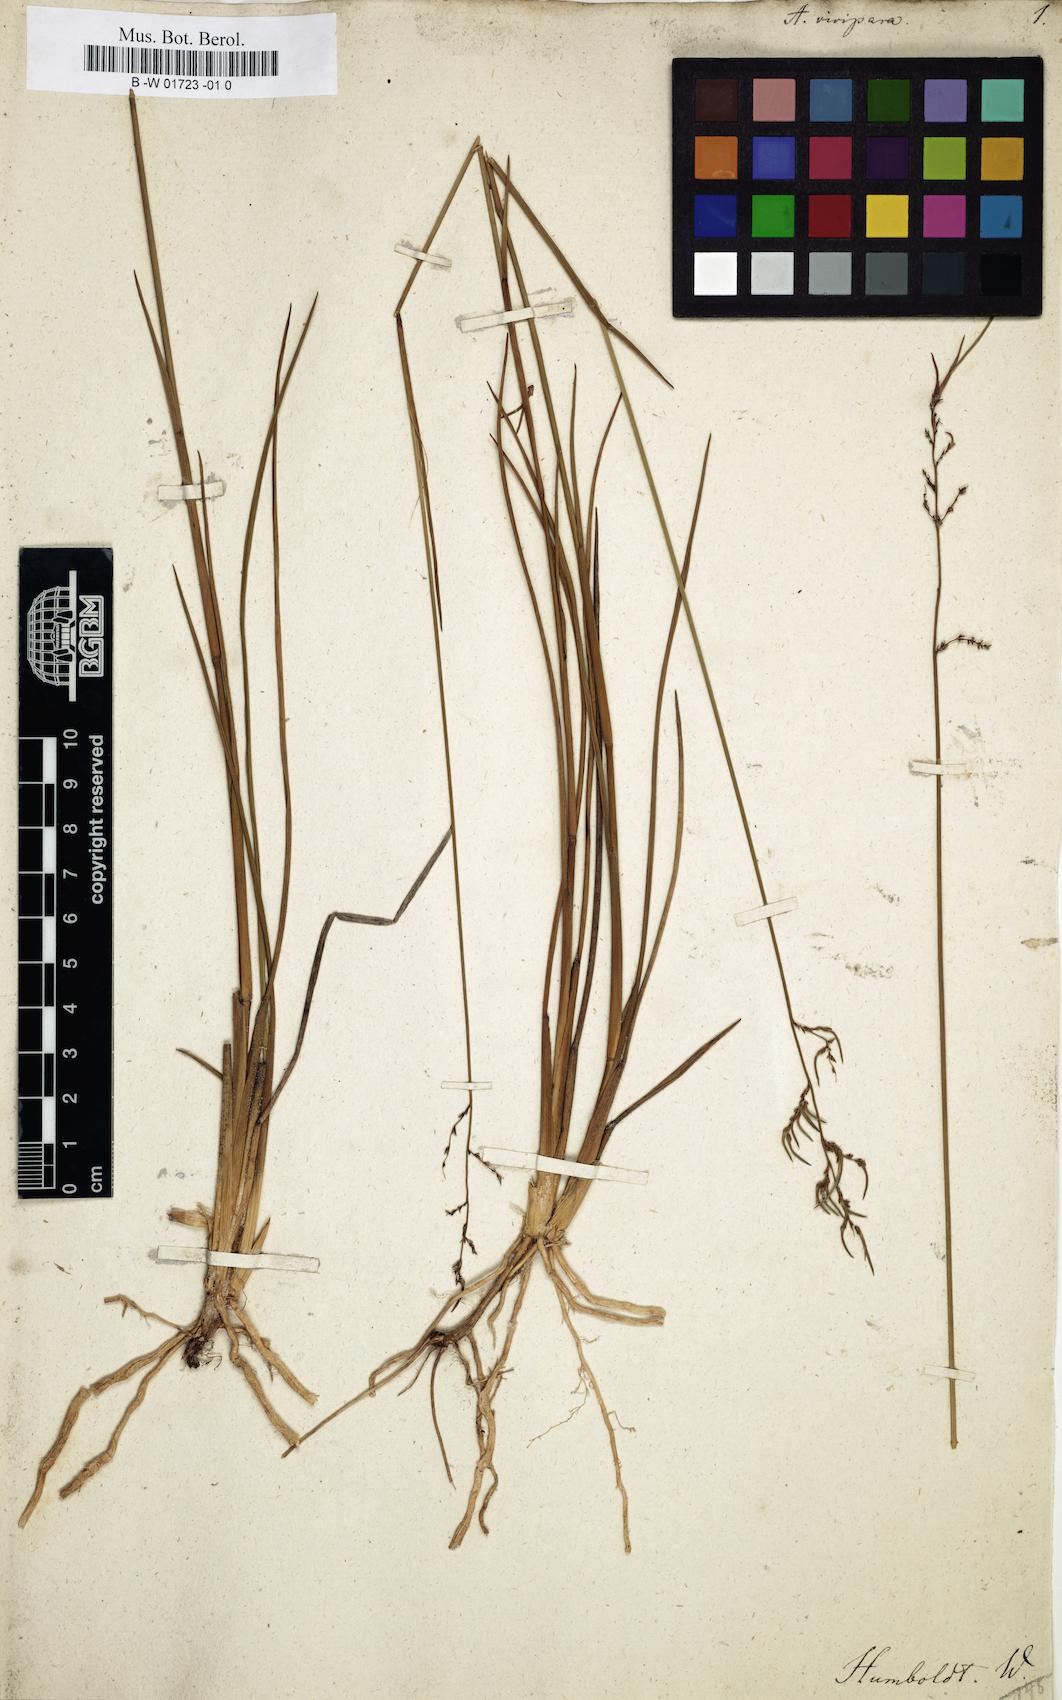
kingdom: Plantae
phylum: Tracheophyta
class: Liliopsida
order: Poales
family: Poaceae
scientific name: Poaceae
